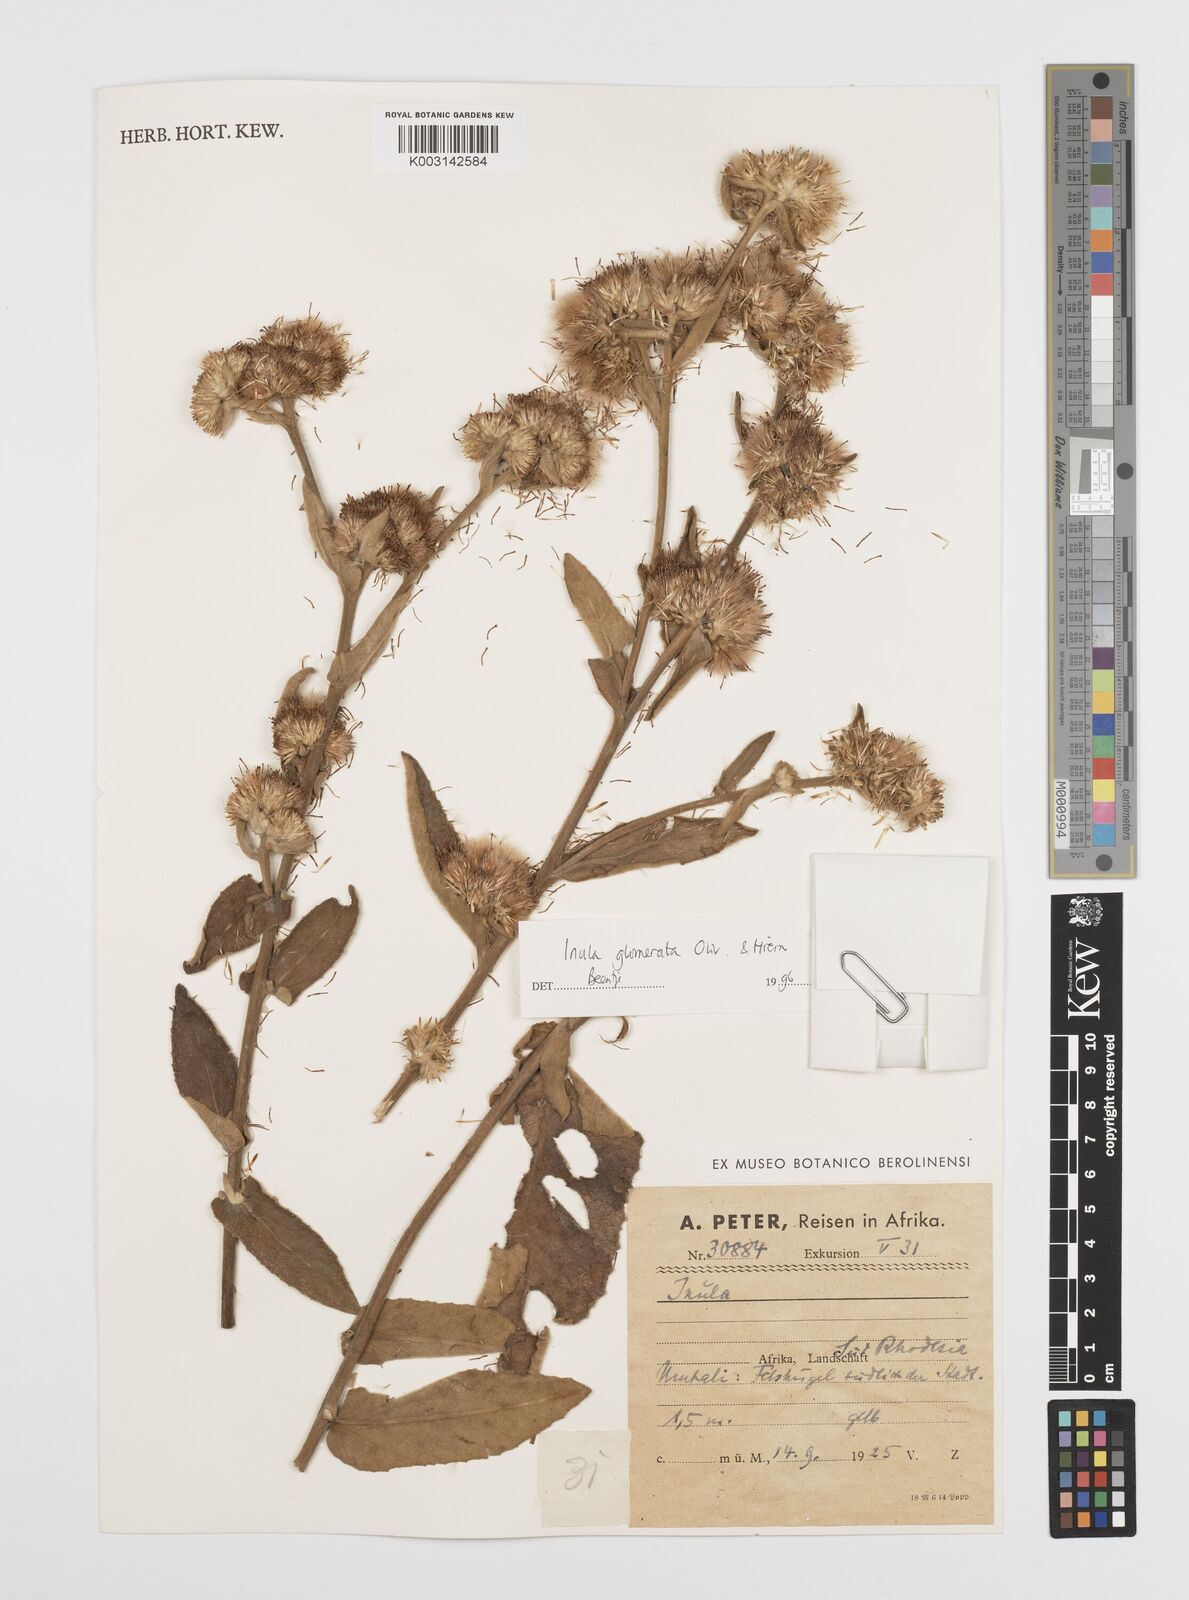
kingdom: Plantae
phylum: Tracheophyta
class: Magnoliopsida
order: Asterales
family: Asteraceae
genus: Inula
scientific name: Inula glomerata
